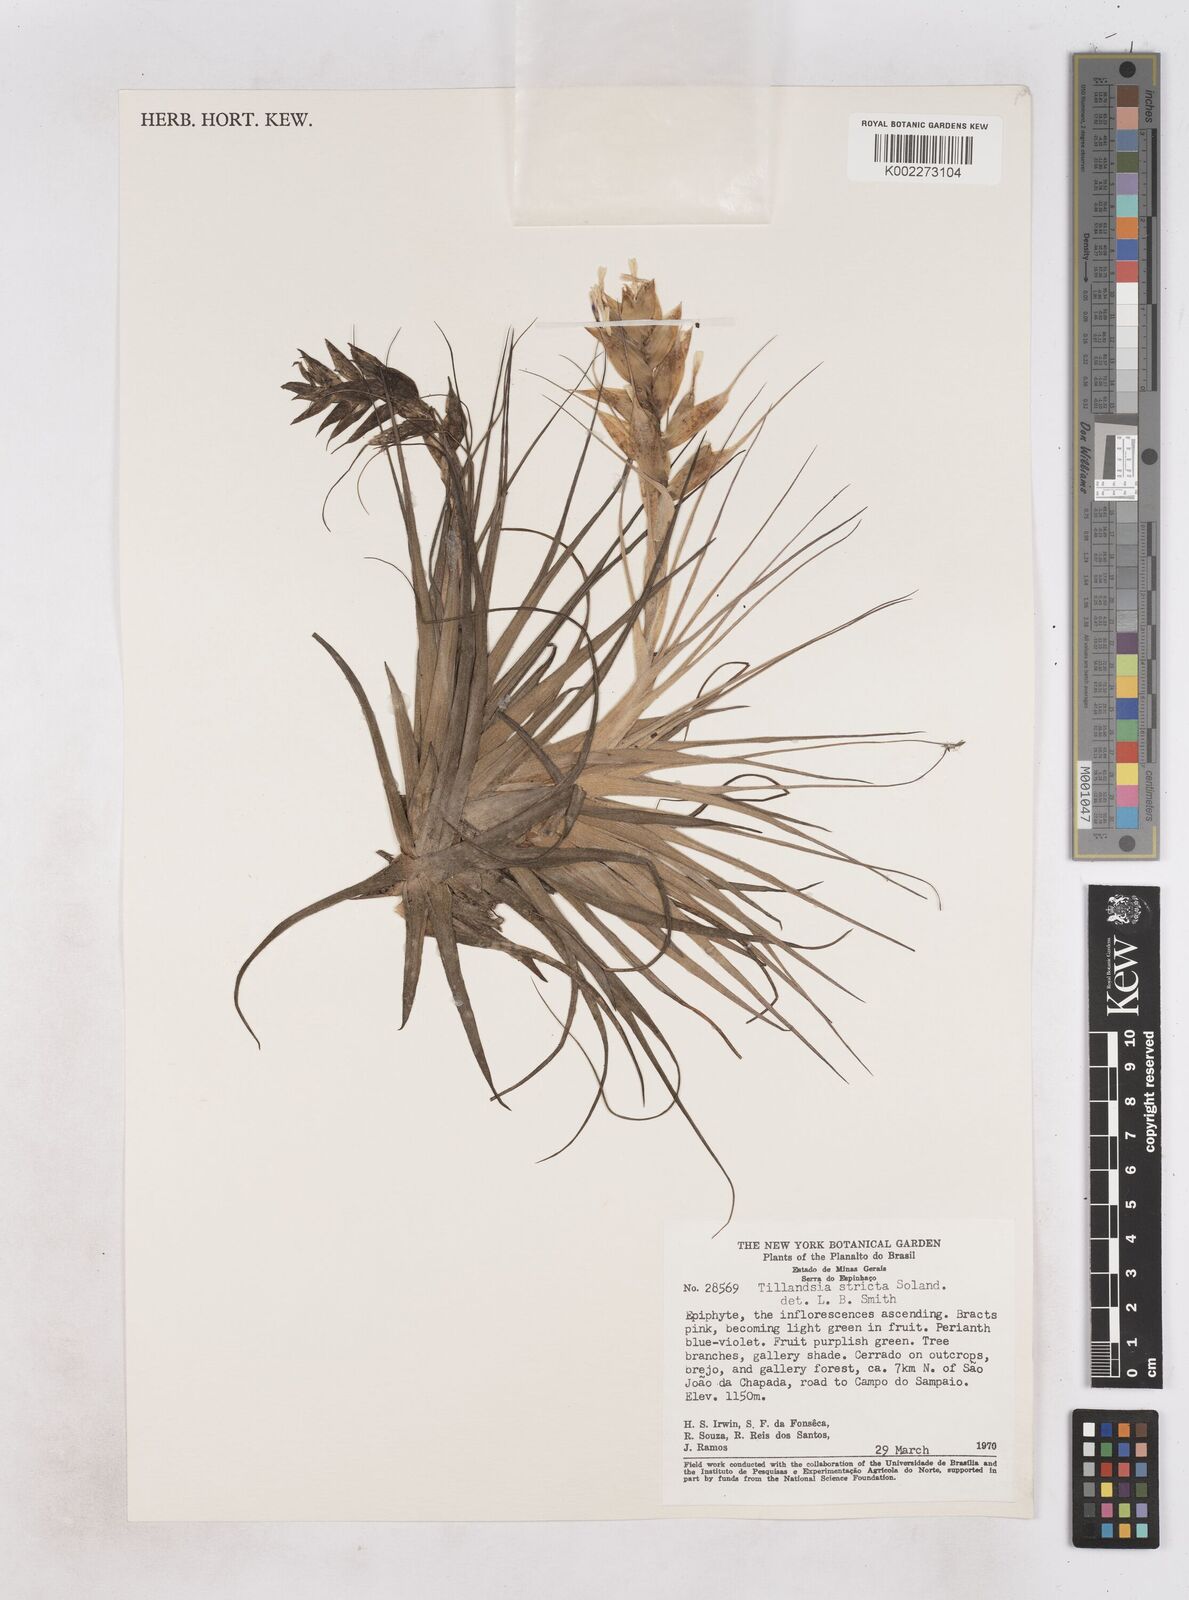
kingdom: Plantae
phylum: Tracheophyta
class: Liliopsida
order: Poales
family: Bromeliaceae
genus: Tillandsia
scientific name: Tillandsia stricta
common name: Airplant
